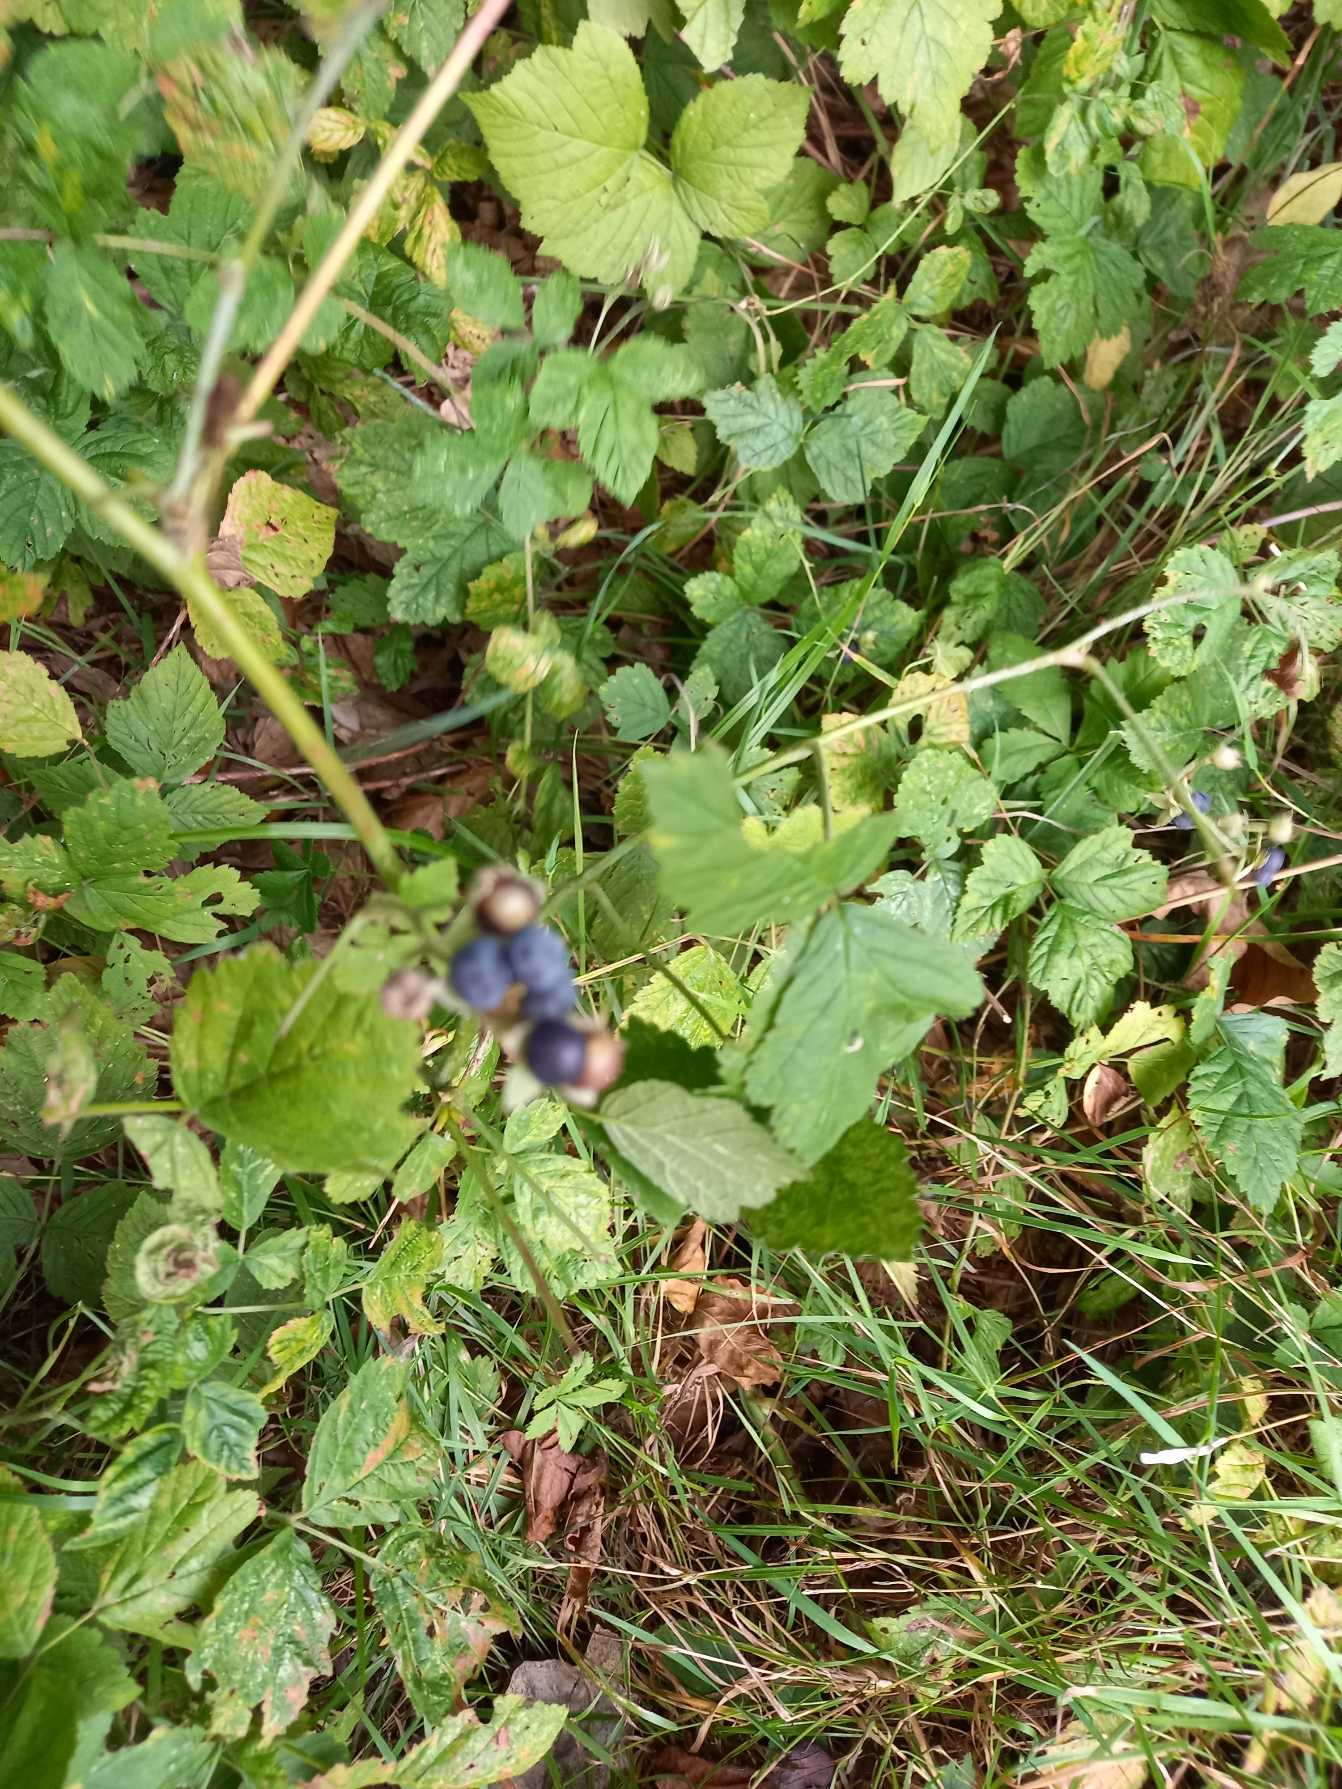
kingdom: Plantae
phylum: Tracheophyta
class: Magnoliopsida
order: Rosales
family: Rosaceae
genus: Rubus
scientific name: Rubus caesius
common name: Korbær
